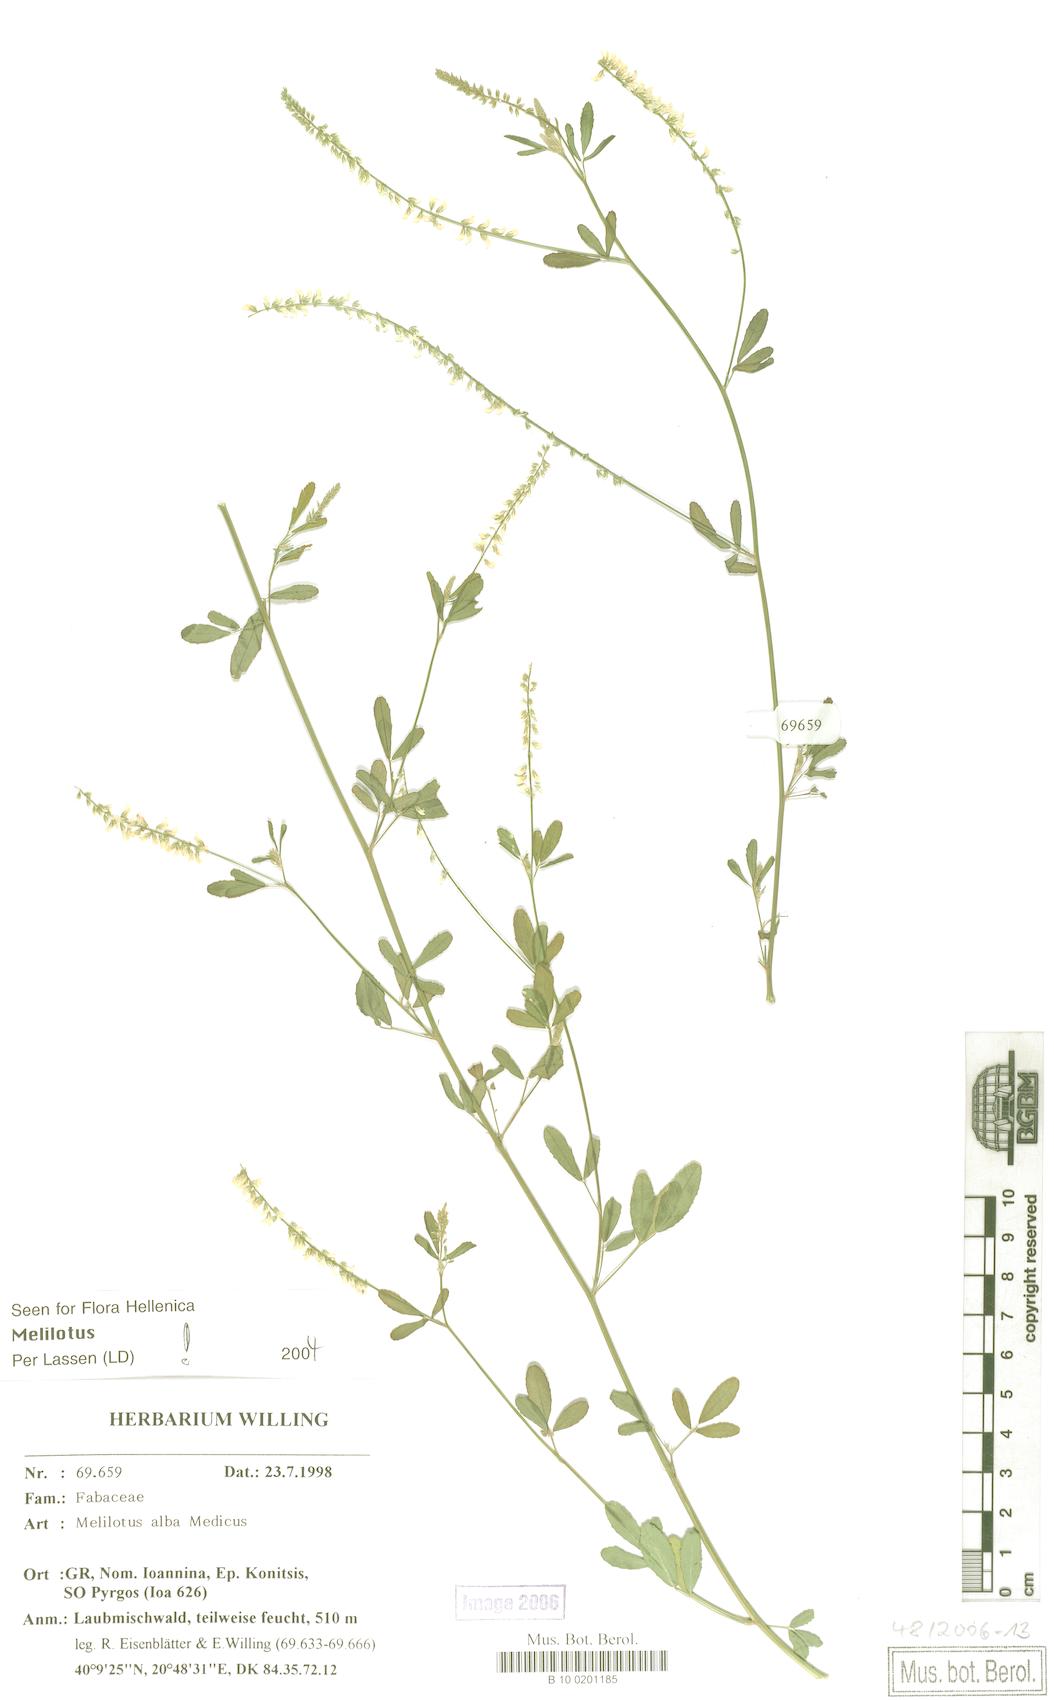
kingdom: Plantae
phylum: Tracheophyta
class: Magnoliopsida
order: Fabales
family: Fabaceae
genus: Melilotus
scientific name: Melilotus albus
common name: White melilot
